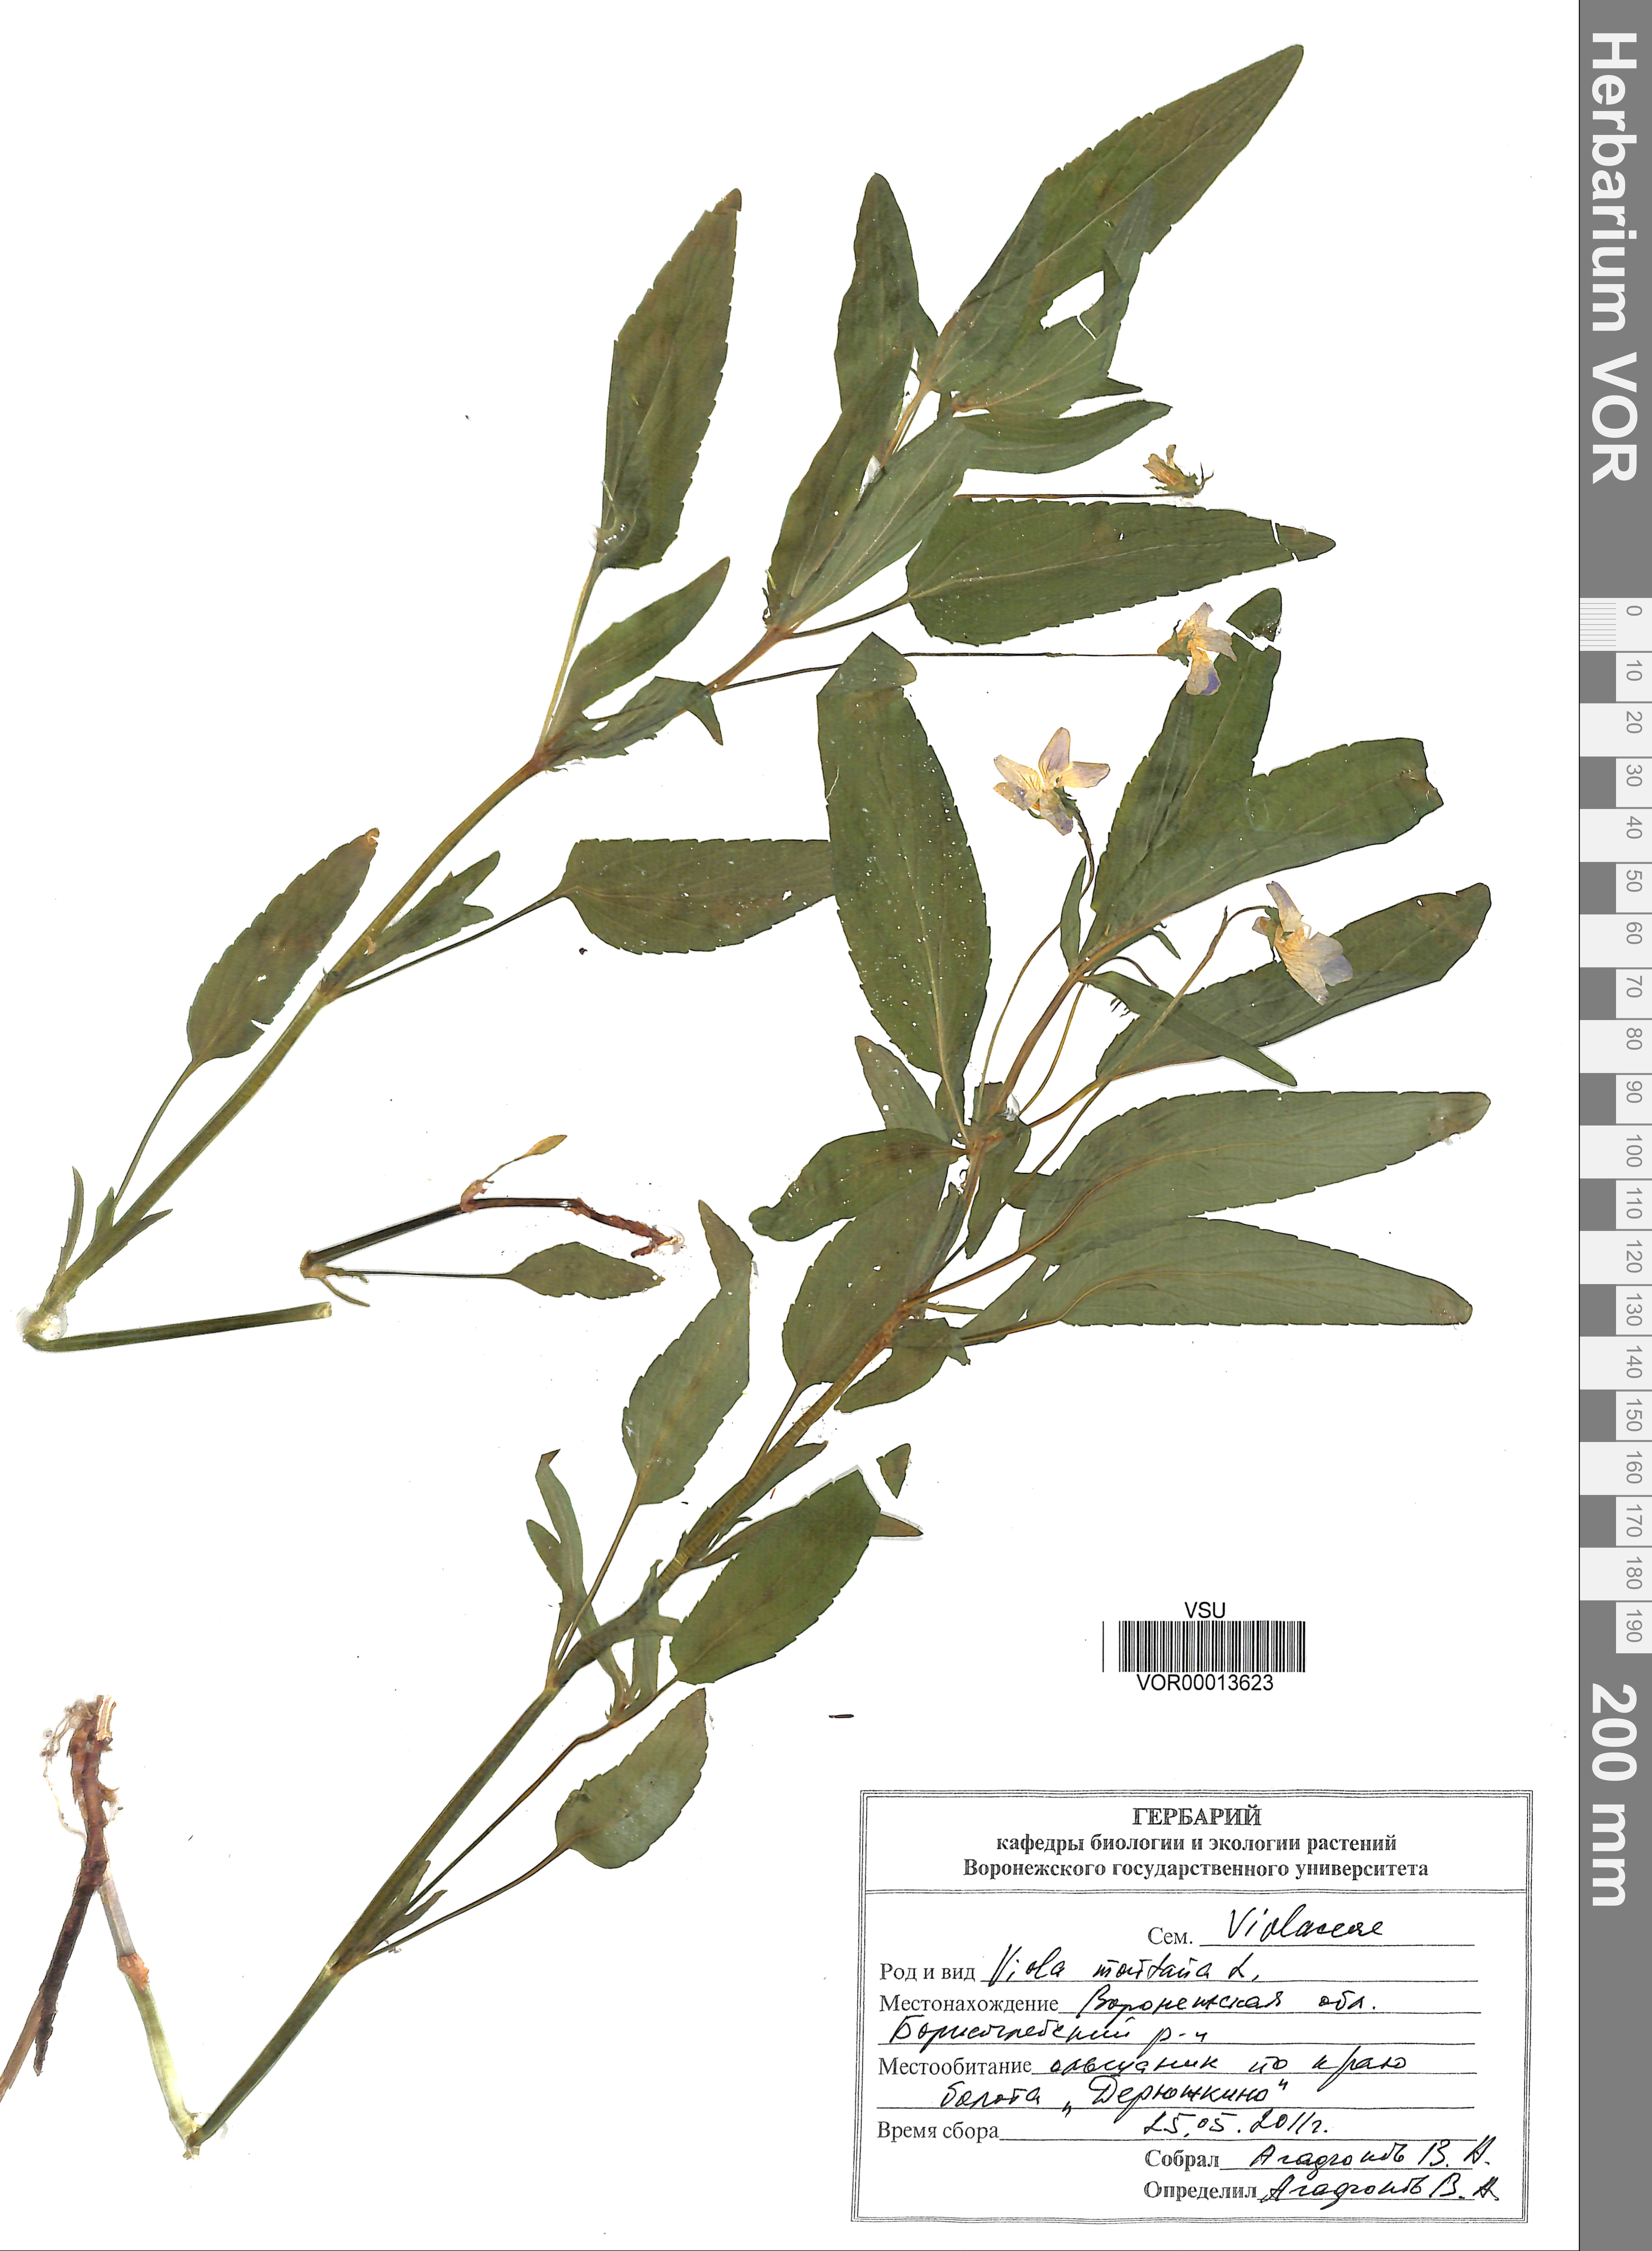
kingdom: Plantae
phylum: Tracheophyta
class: Magnoliopsida
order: Malpighiales
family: Violaceae
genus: Viola
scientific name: Viola ruppii
